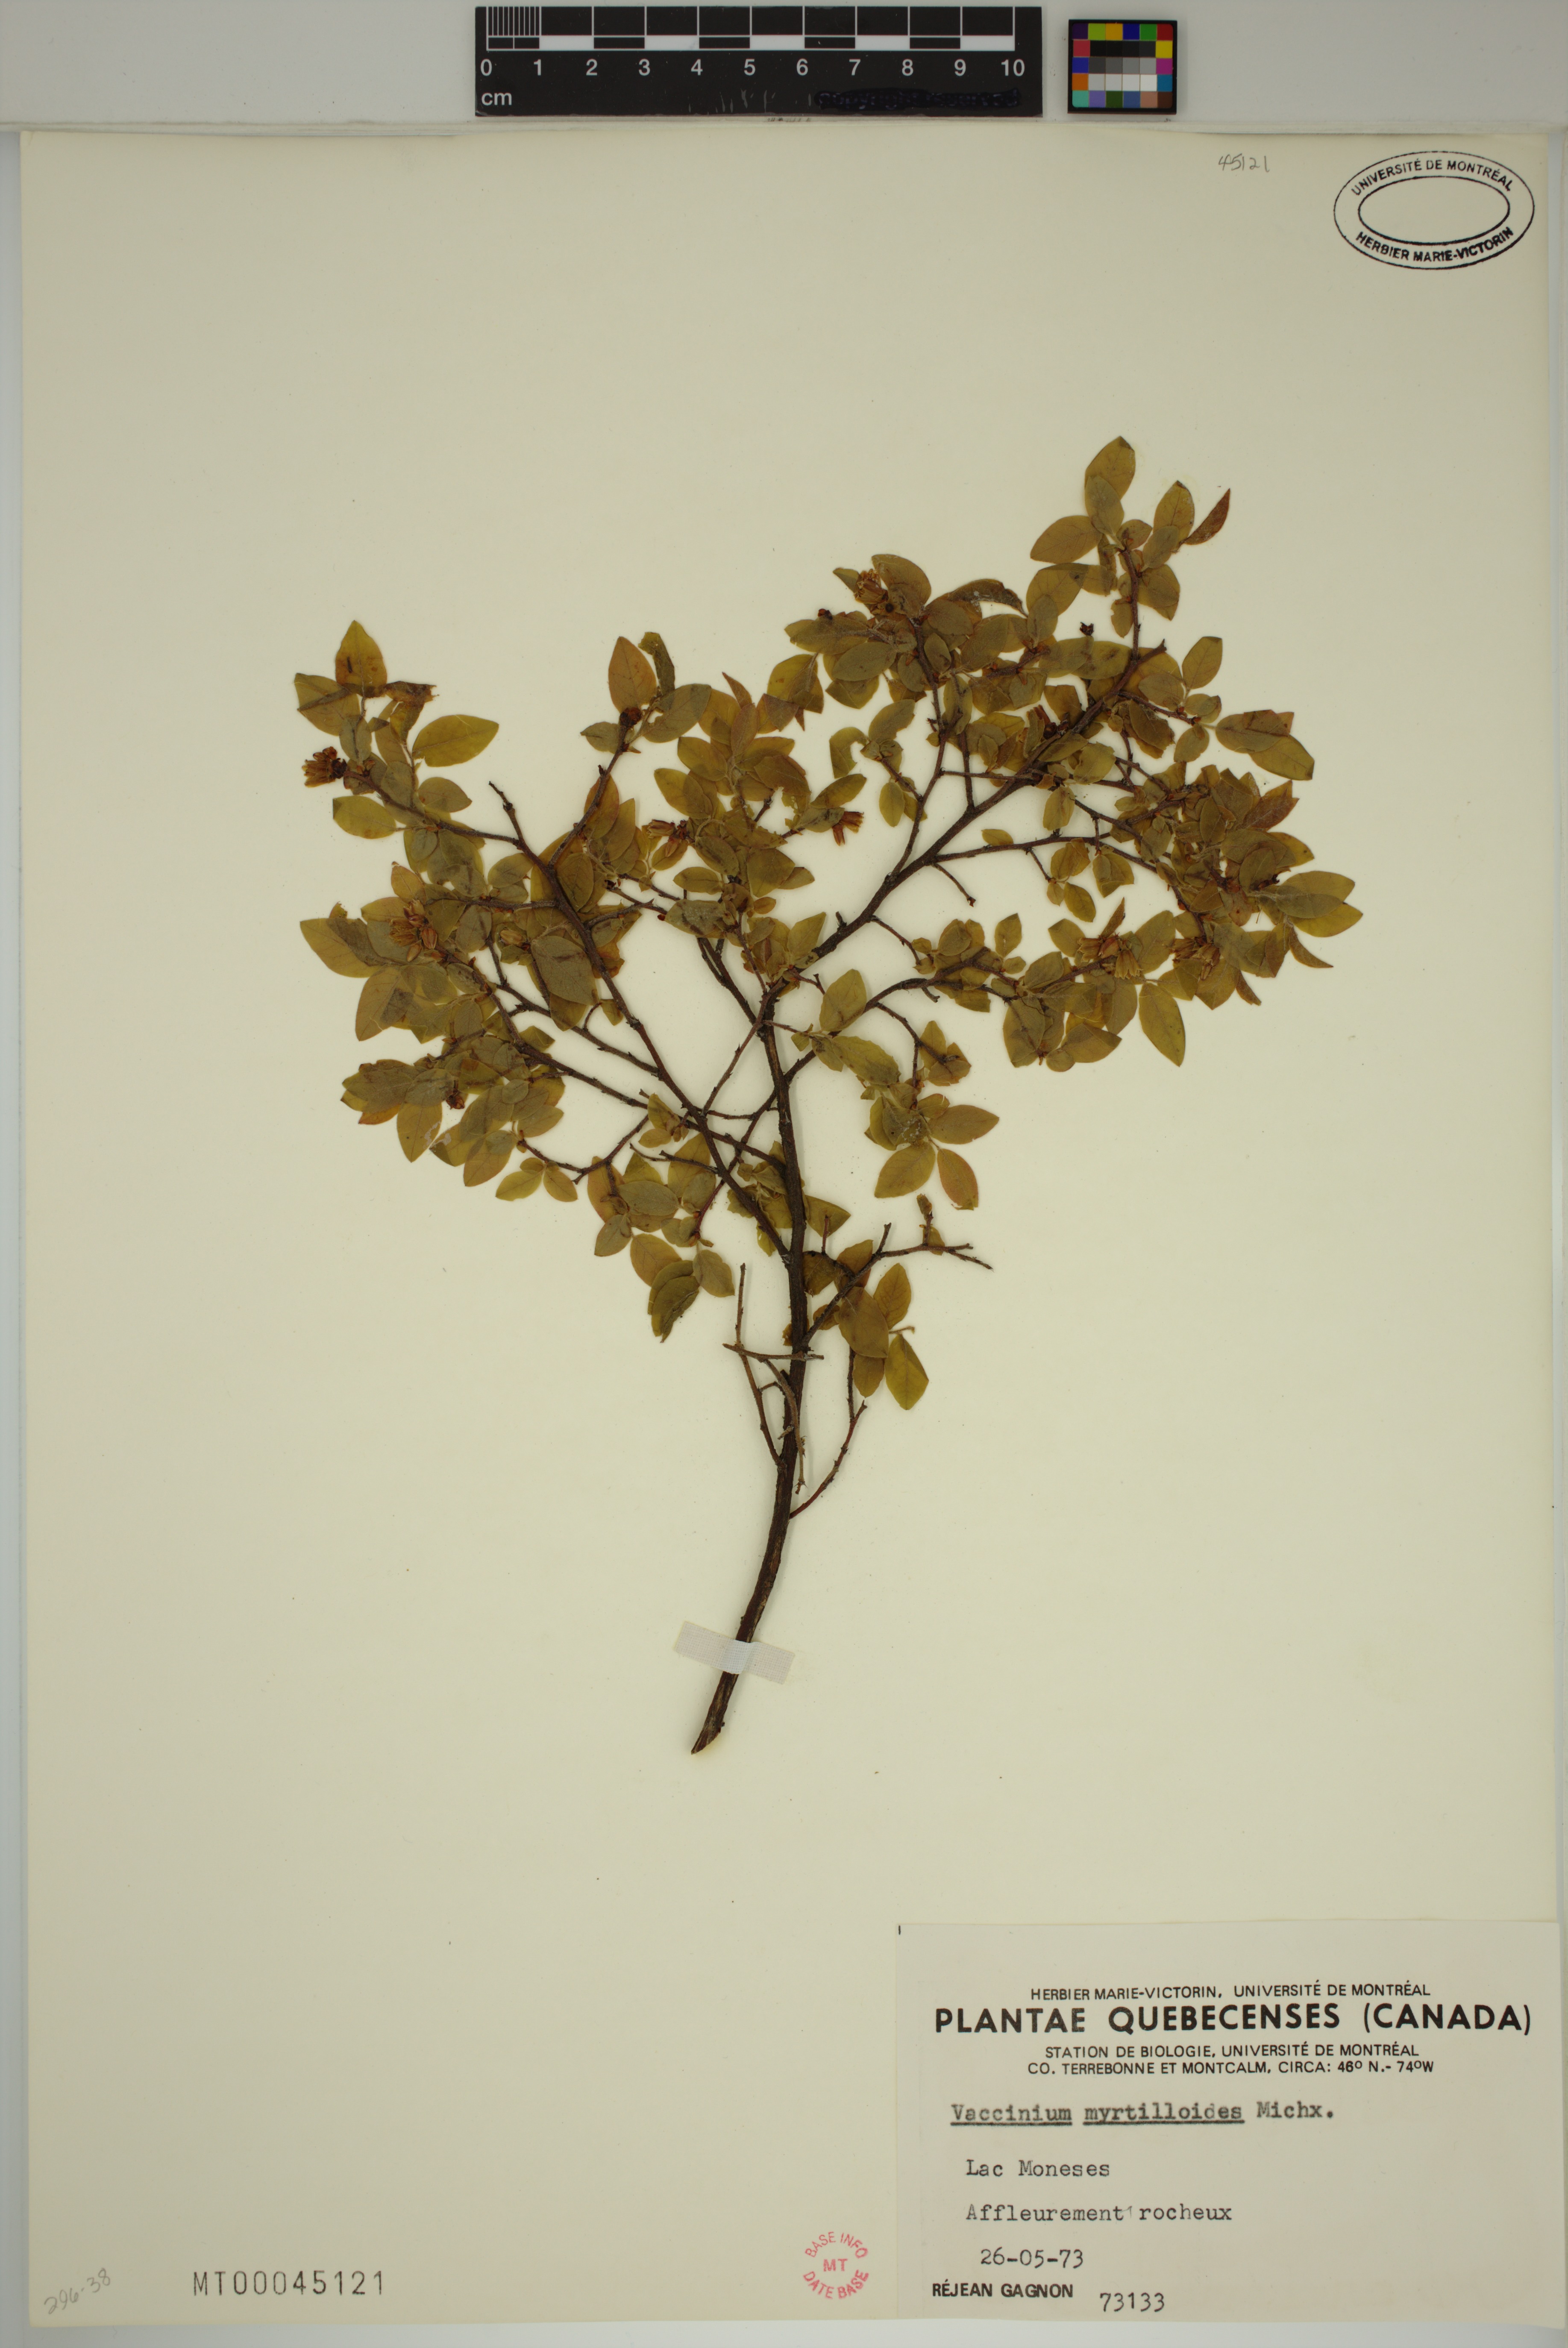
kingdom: Plantae
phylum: Tracheophyta
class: Magnoliopsida
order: Ericales
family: Ericaceae
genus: Vaccinium
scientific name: Vaccinium myrtilloides
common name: Canada blueberry
